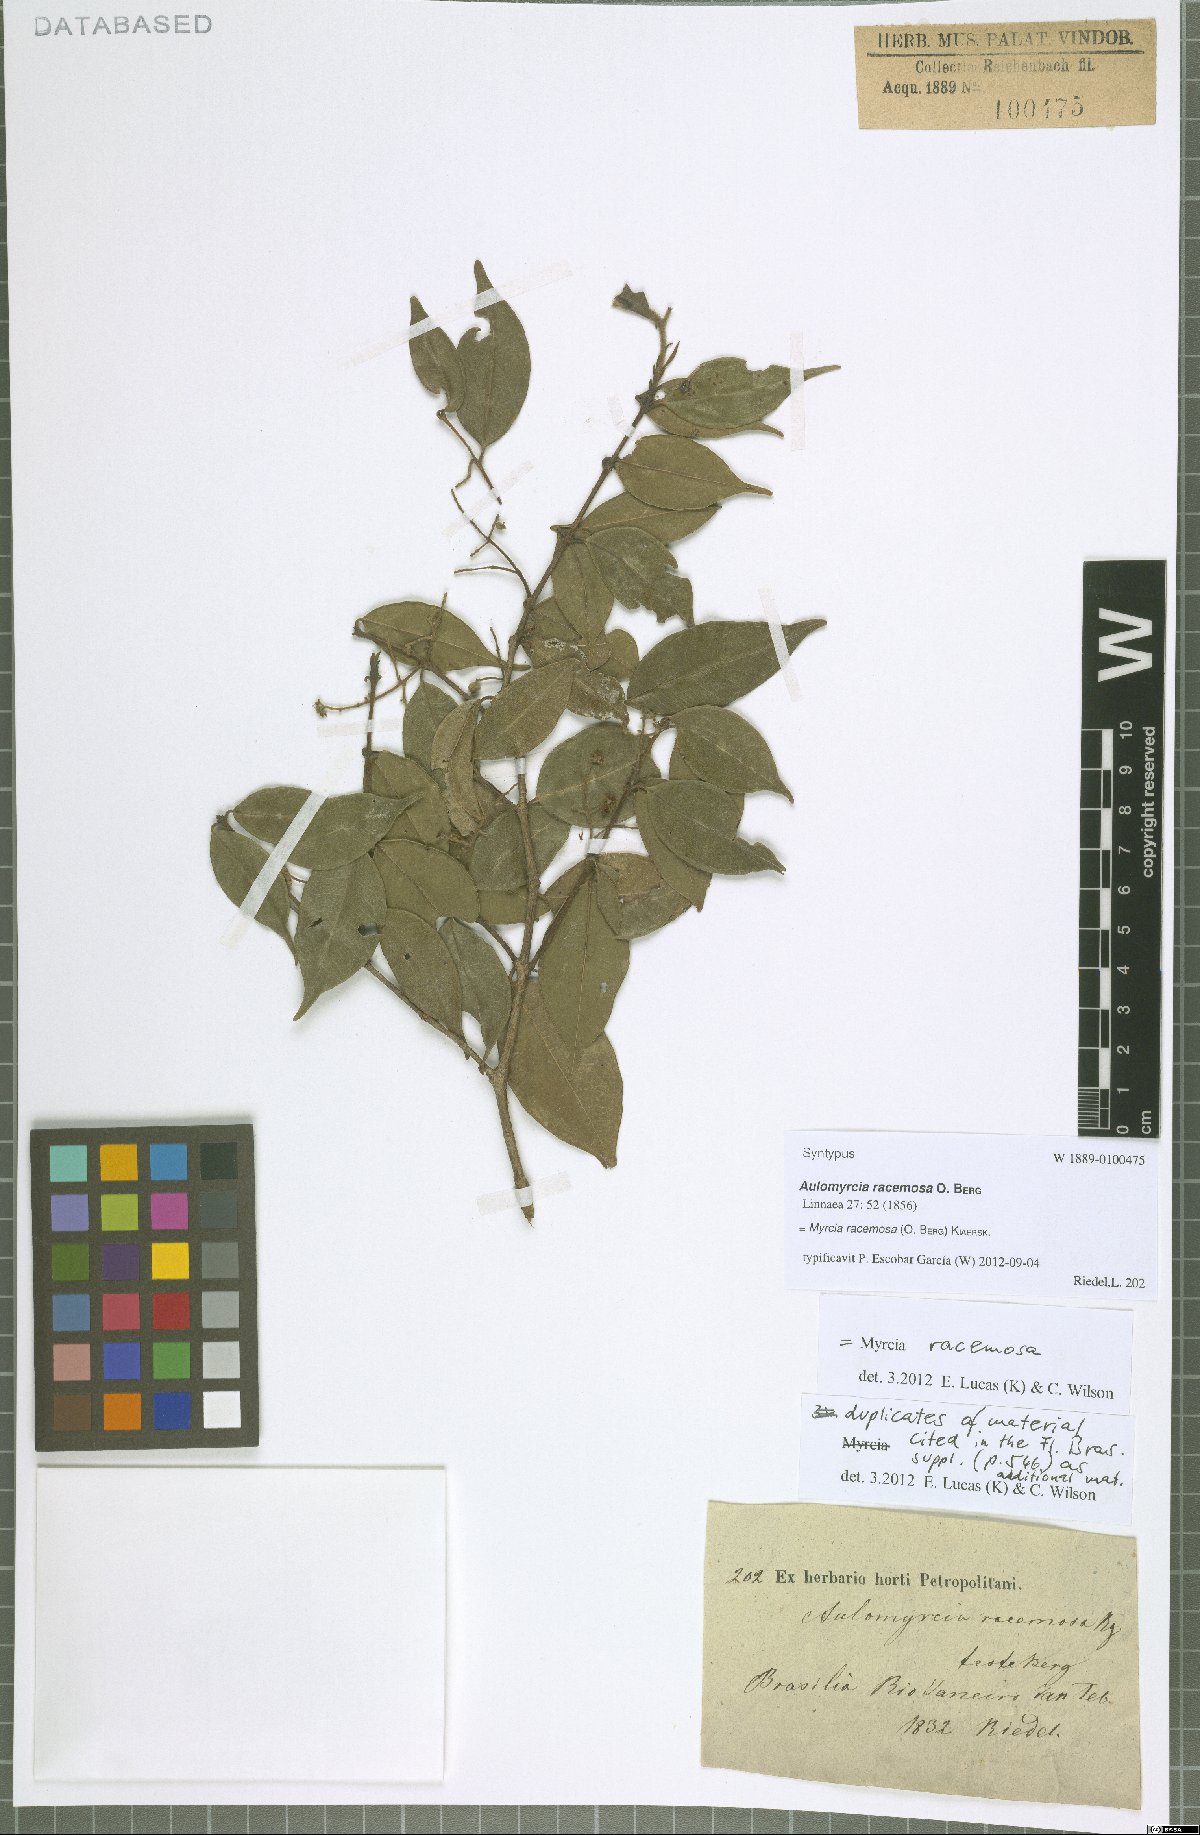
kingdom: Plantae
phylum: Tracheophyta
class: Magnoliopsida
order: Myrtales
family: Myrtaceae
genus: Myrcia
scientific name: Myrcia racemosa
